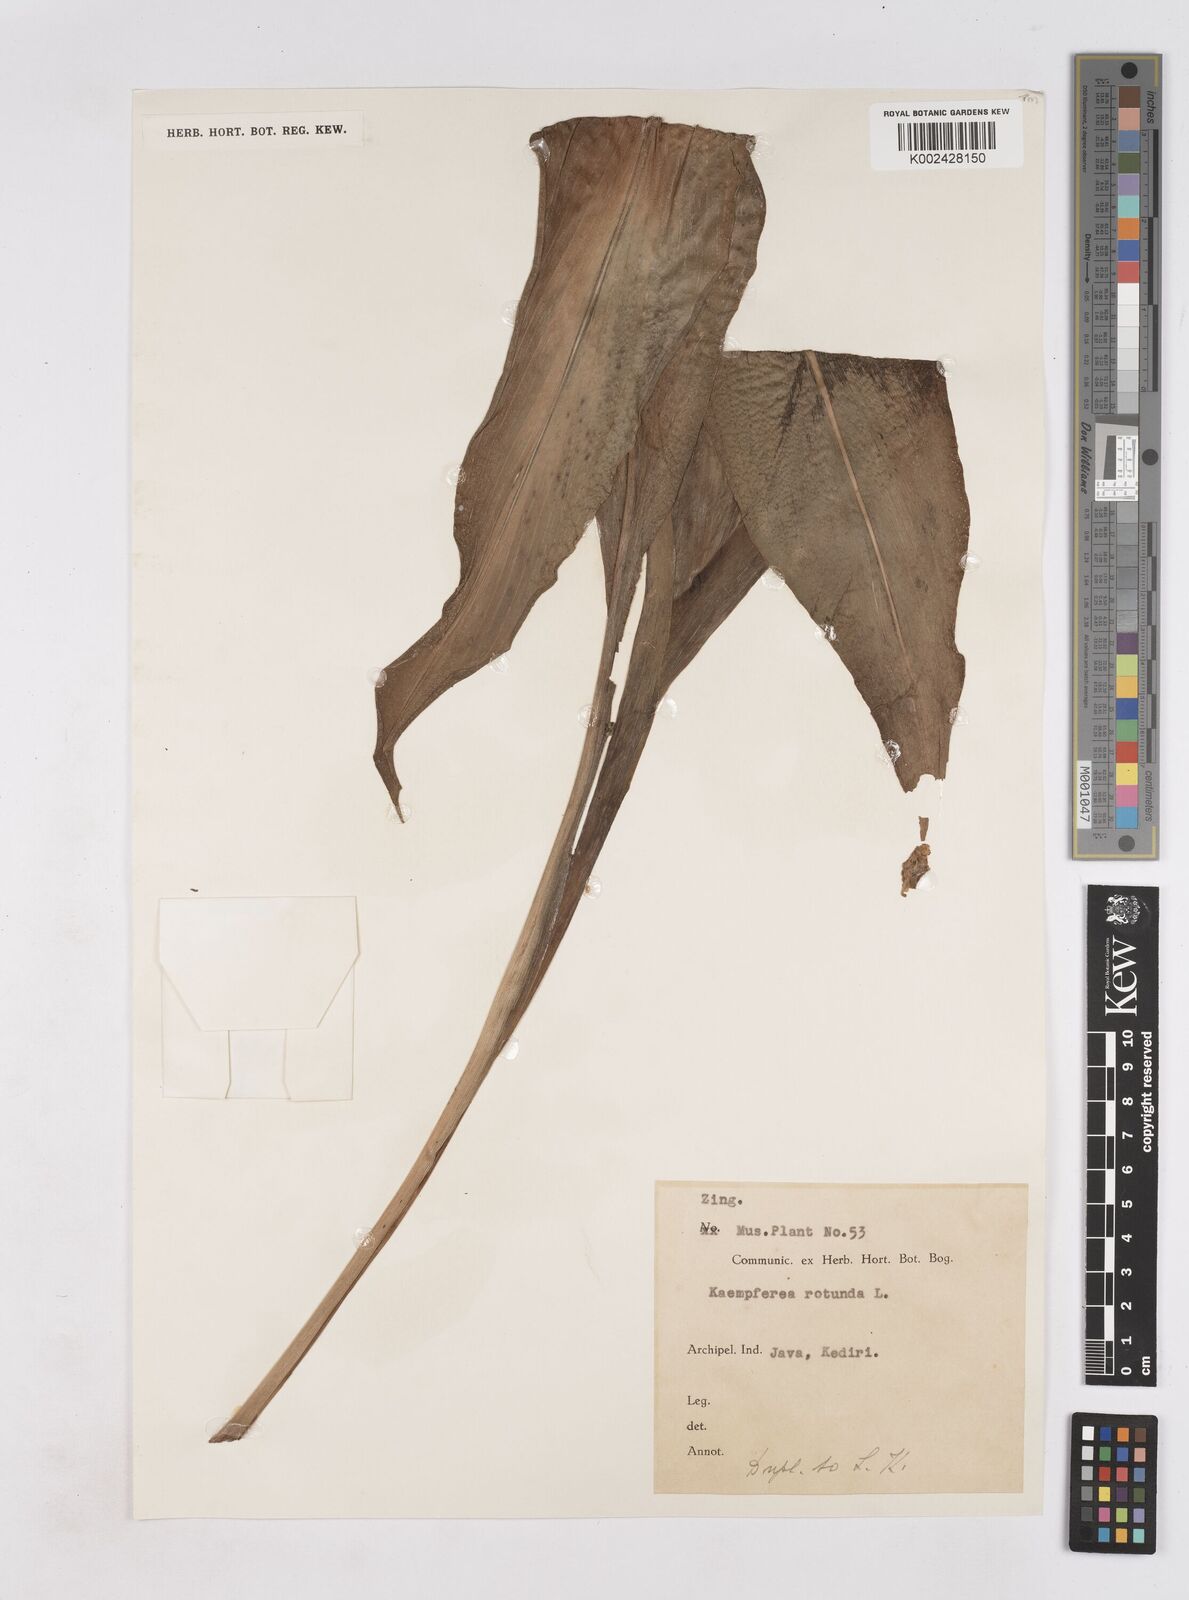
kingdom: Plantae
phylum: Tracheophyta
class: Liliopsida
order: Zingiberales
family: Zingiberaceae
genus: Kaempferia
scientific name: Kaempferia rotunda
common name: Tropical-crocus
